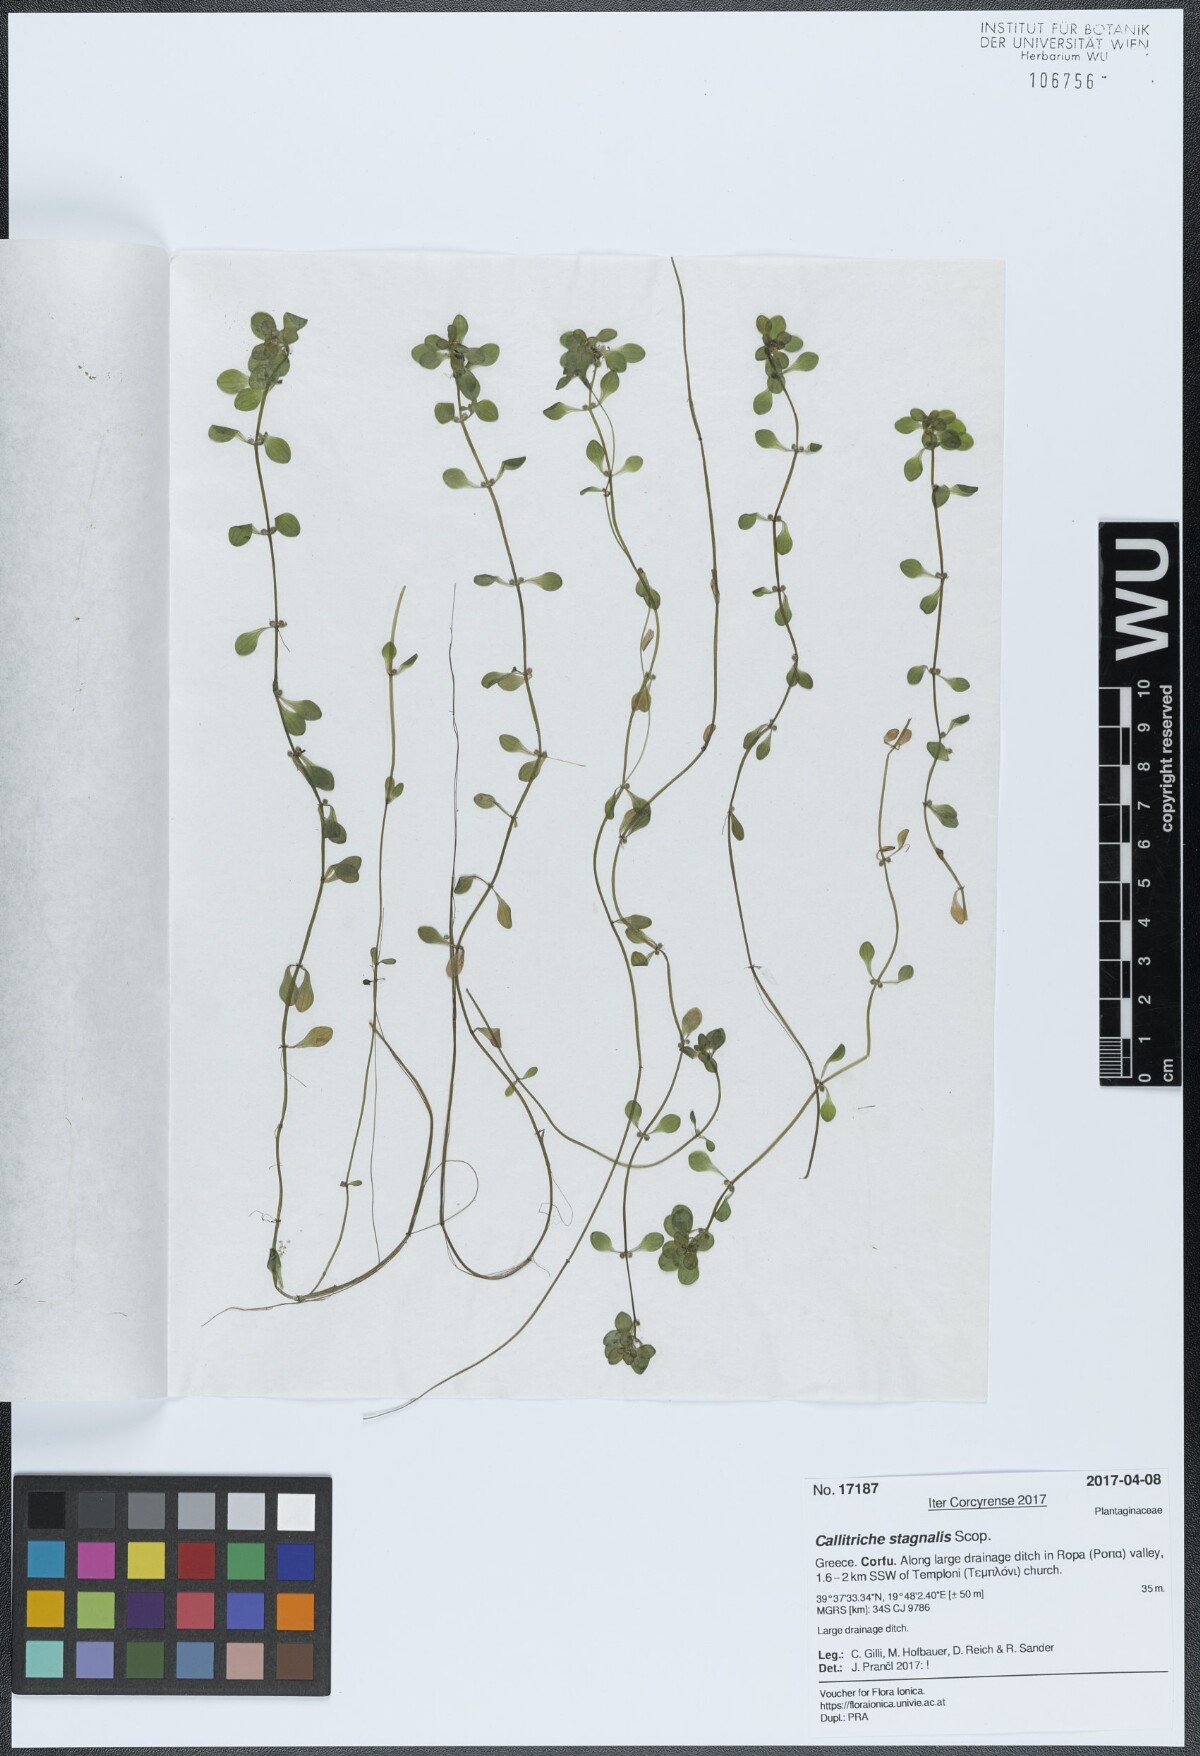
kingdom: Plantae
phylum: Tracheophyta
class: Magnoliopsida
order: Lamiales
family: Plantaginaceae
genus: Callitriche
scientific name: Callitriche stagnalis
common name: Common water-starwort
